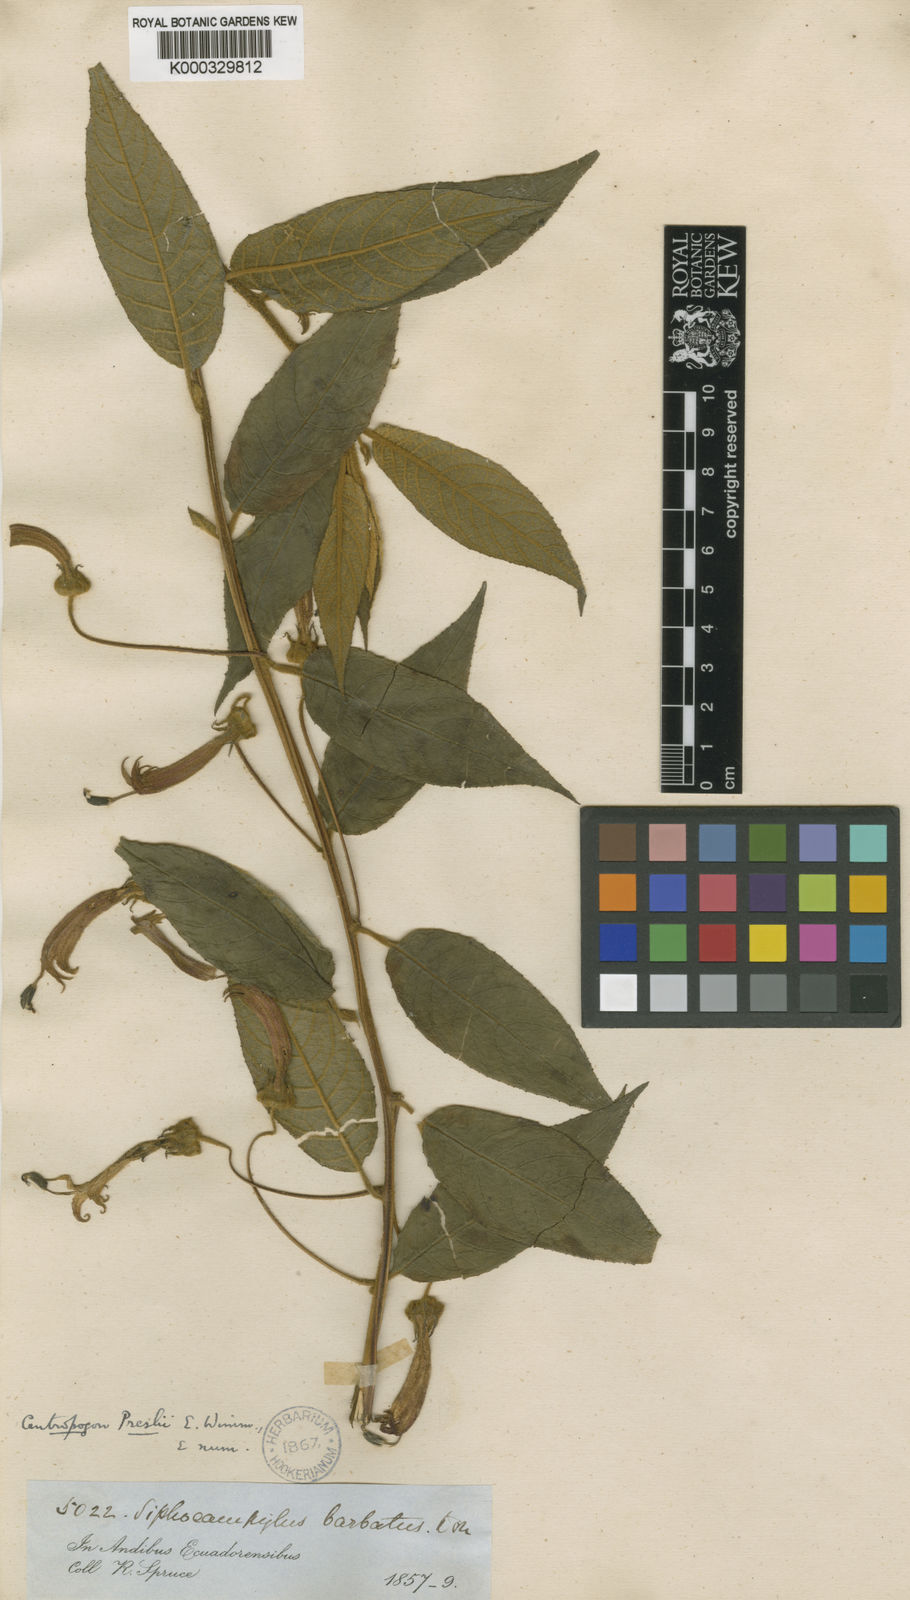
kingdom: Plantae
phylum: Tracheophyta
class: Magnoliopsida
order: Asterales
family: Campanulaceae
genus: Centropogon
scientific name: Centropogon preslii
